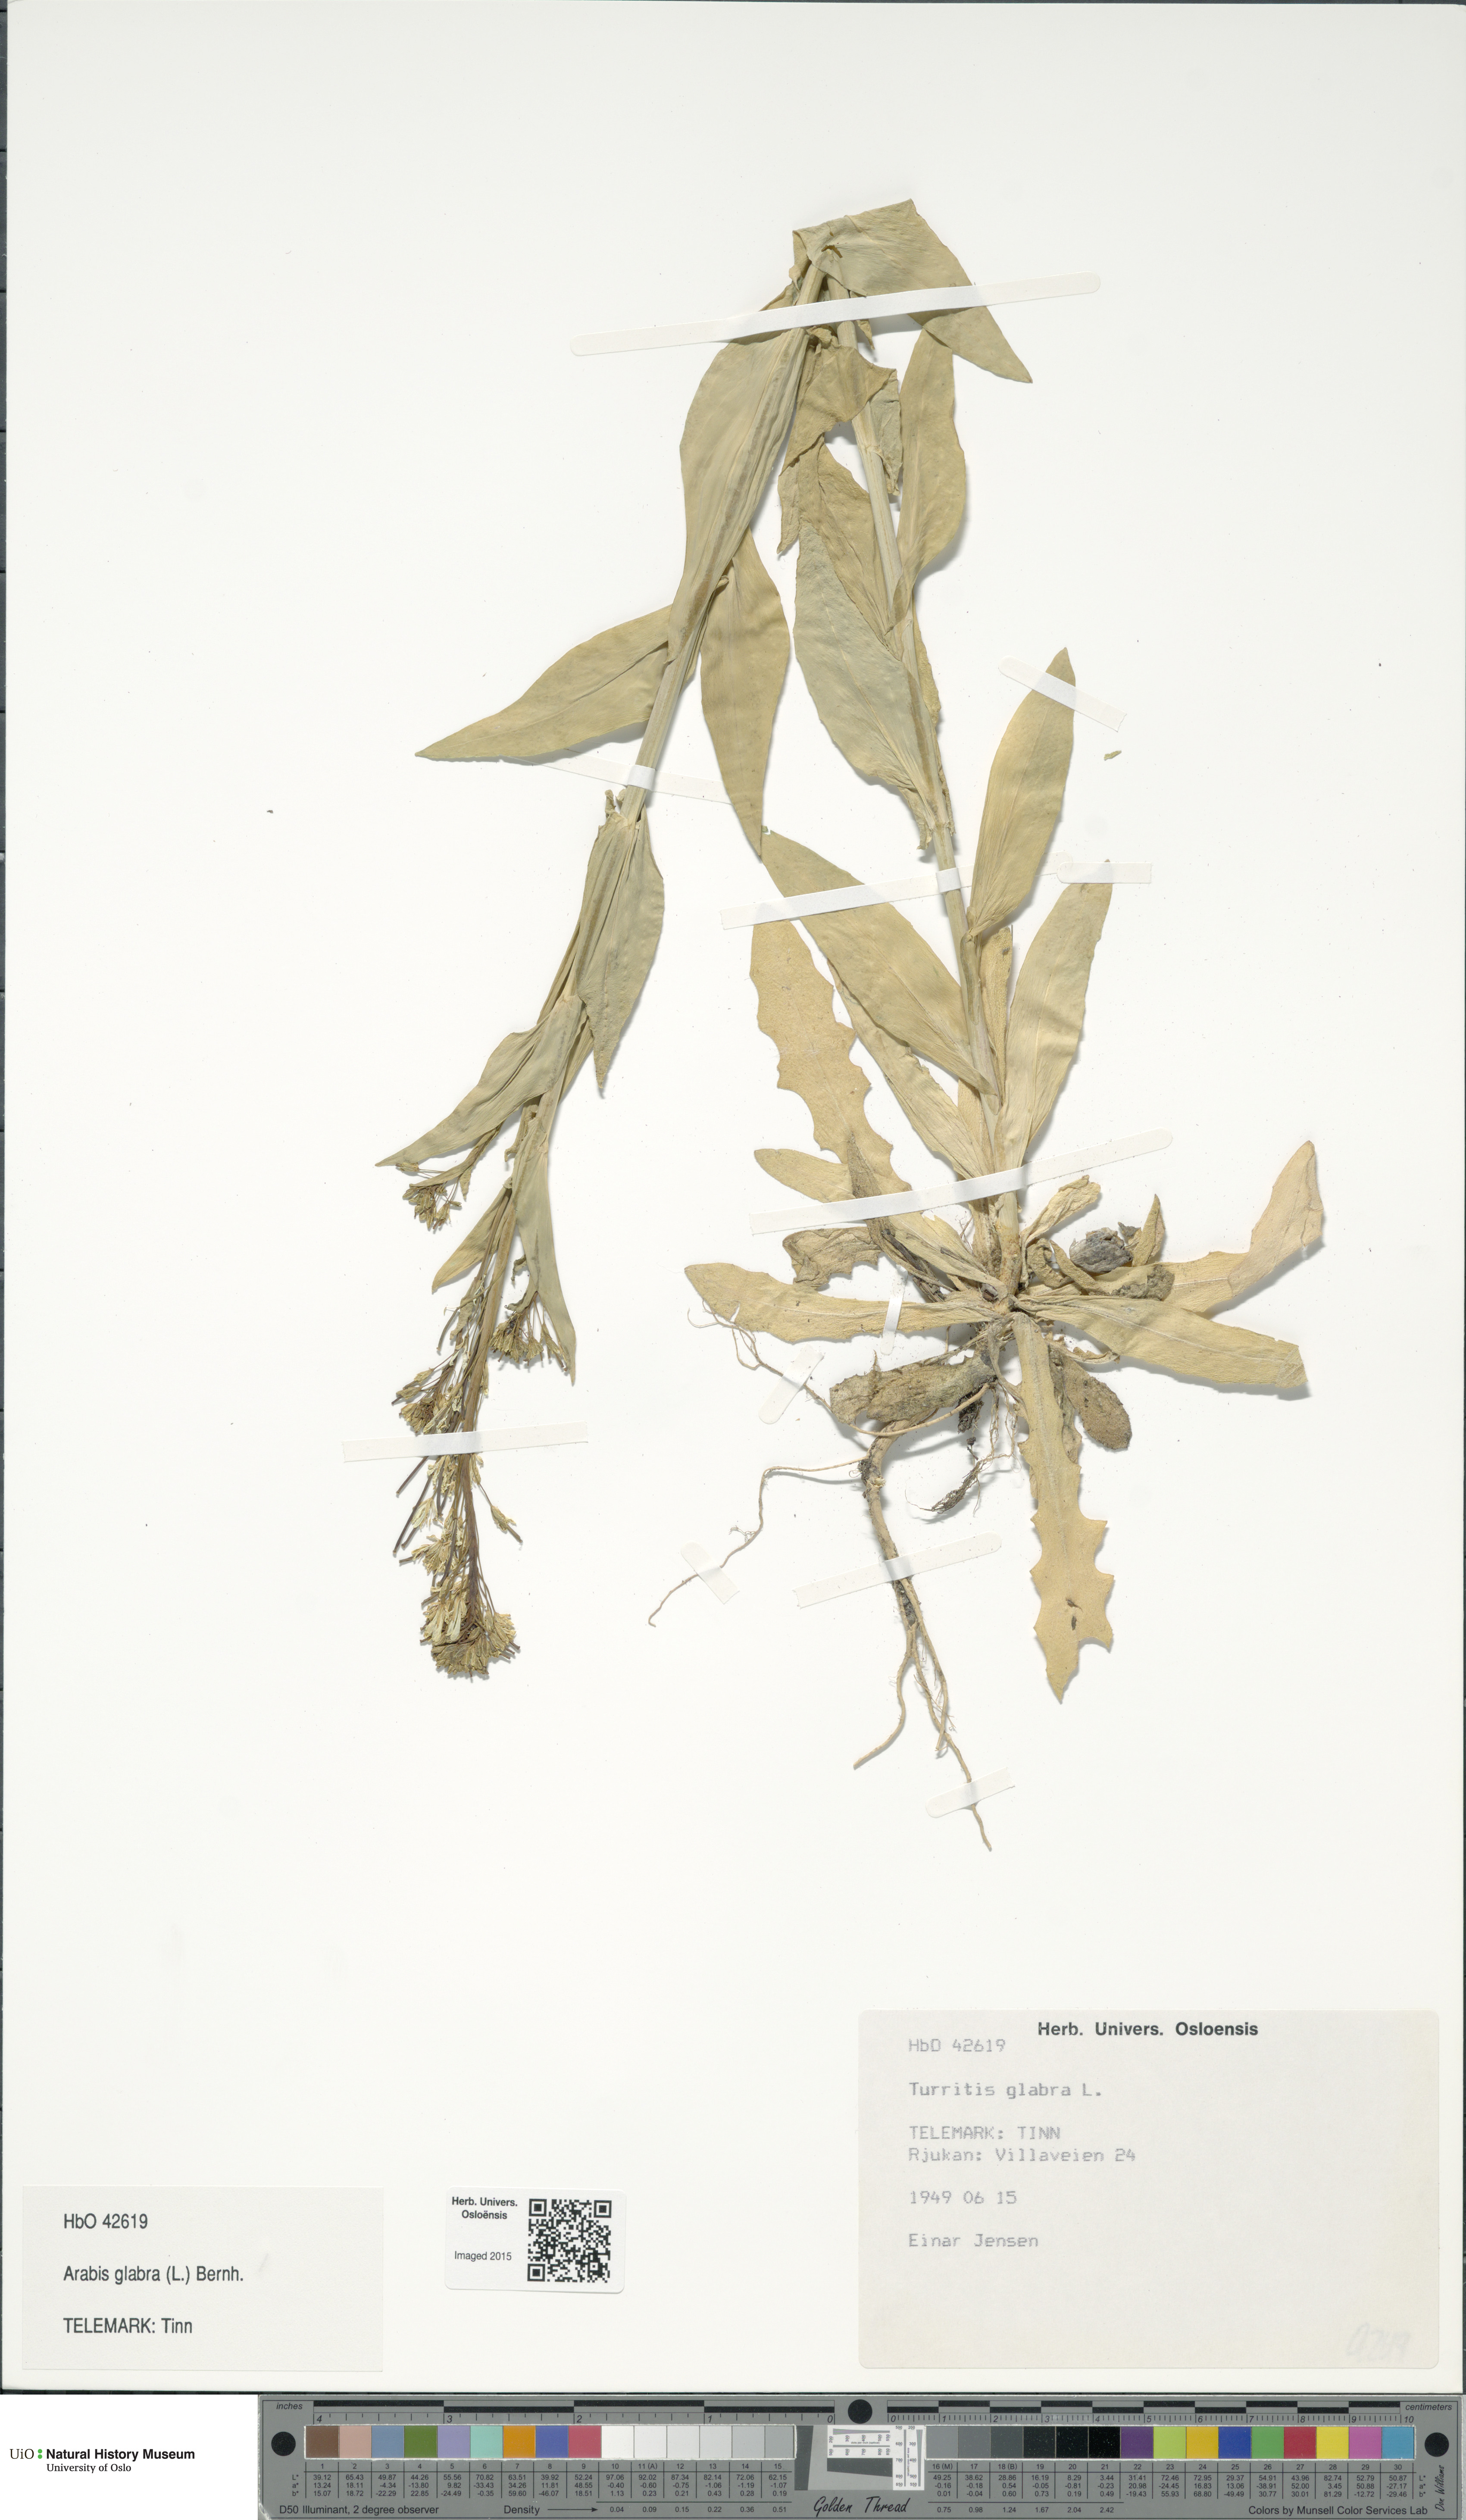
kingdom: Plantae
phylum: Tracheophyta
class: Magnoliopsida
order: Brassicales
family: Brassicaceae
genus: Turritis
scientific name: Turritis glabra
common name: Tower rockcress
